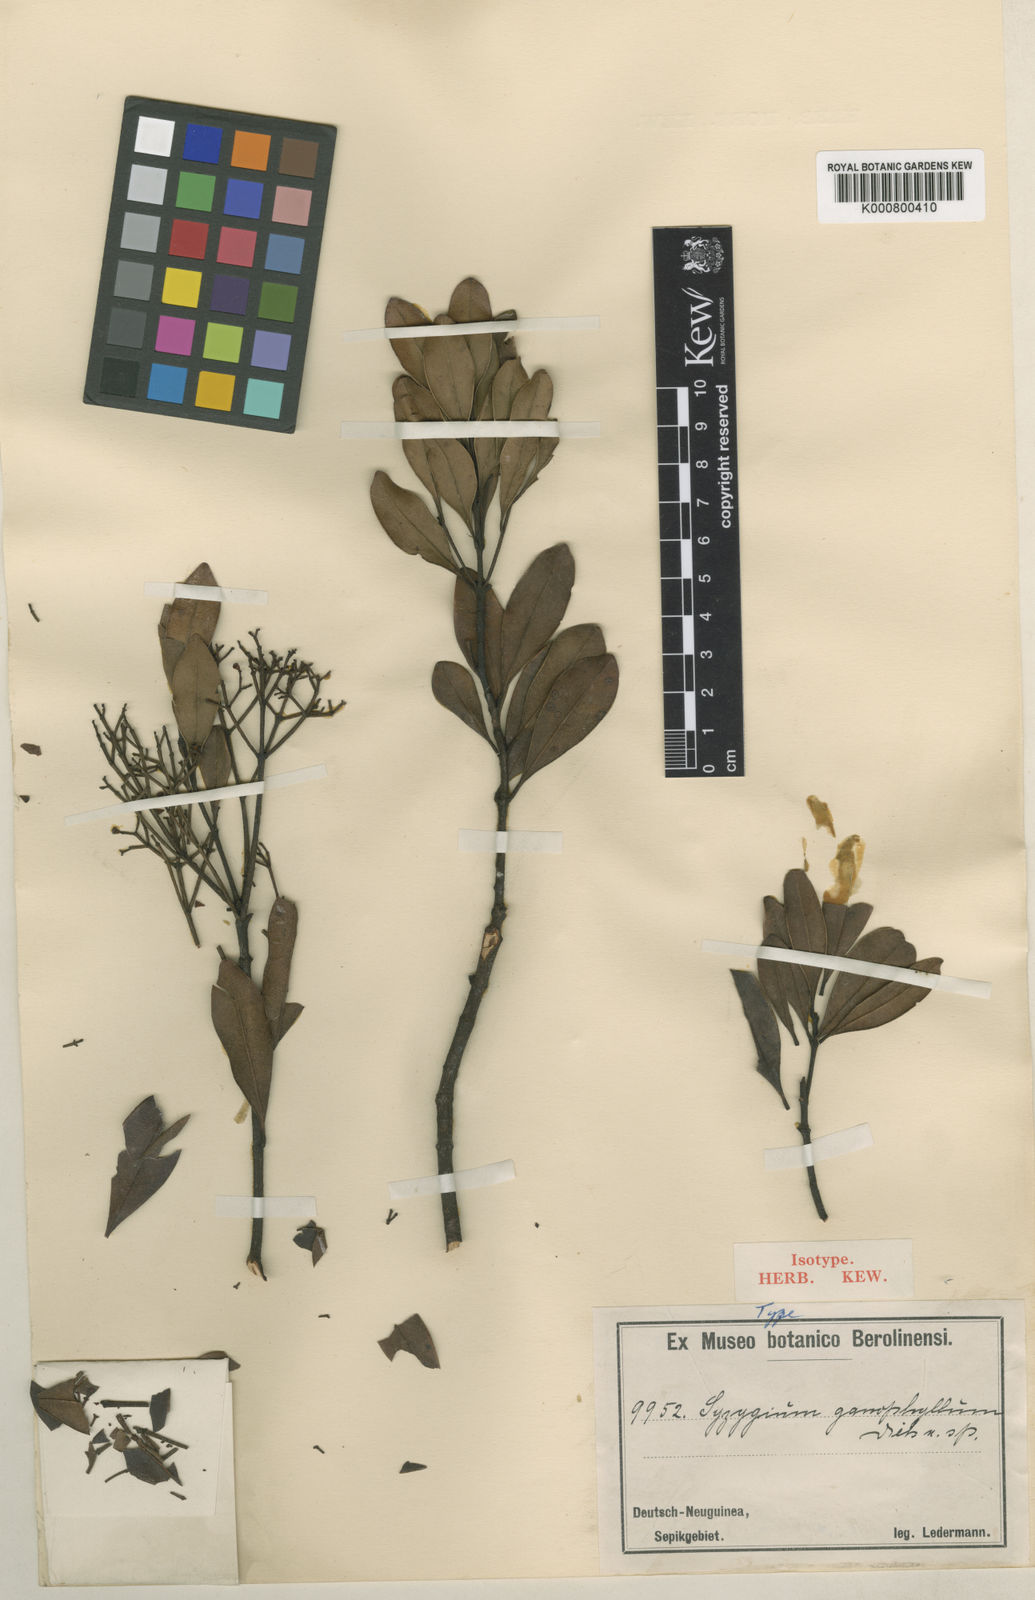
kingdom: Plantae
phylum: Tracheophyta
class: Magnoliopsida
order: Myrtales
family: Myrtaceae
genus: Syzygium
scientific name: Syzygium ganophyllum
